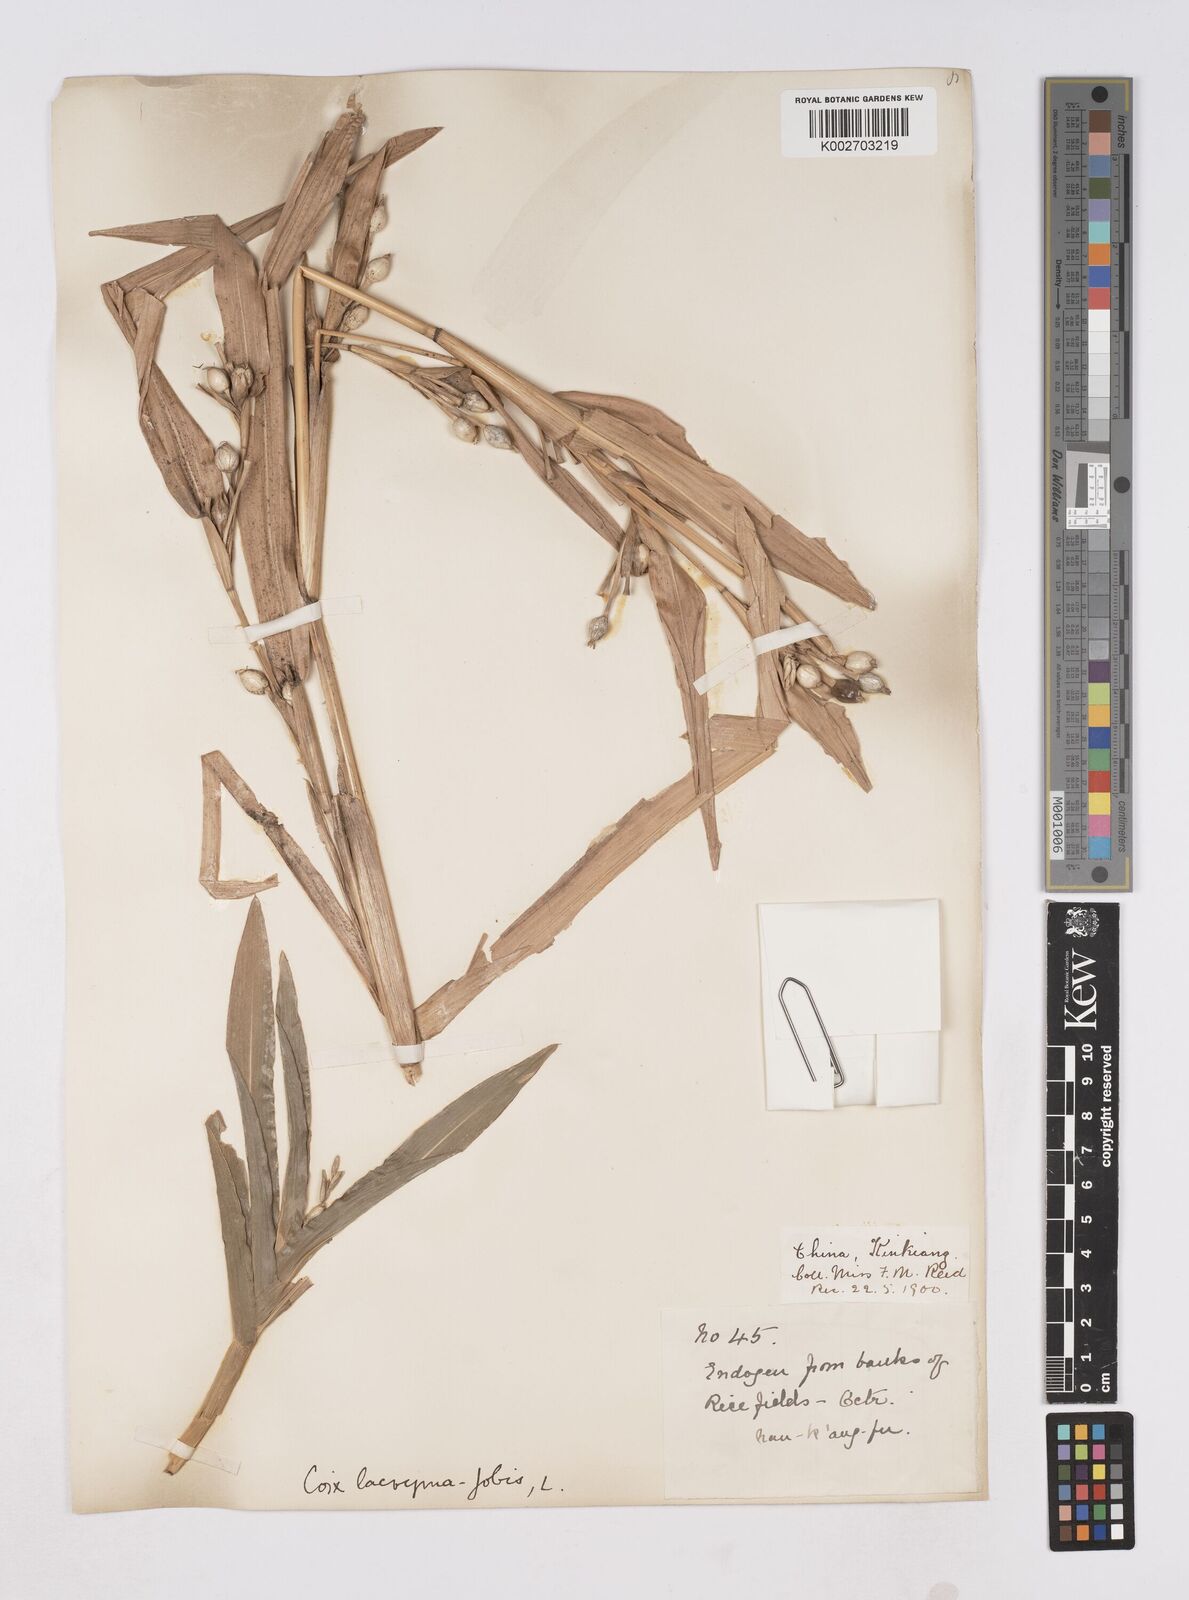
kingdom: Plantae
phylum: Tracheophyta
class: Liliopsida
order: Poales
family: Poaceae
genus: Coix
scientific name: Coix lacryma-jobi
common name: Job's tears
